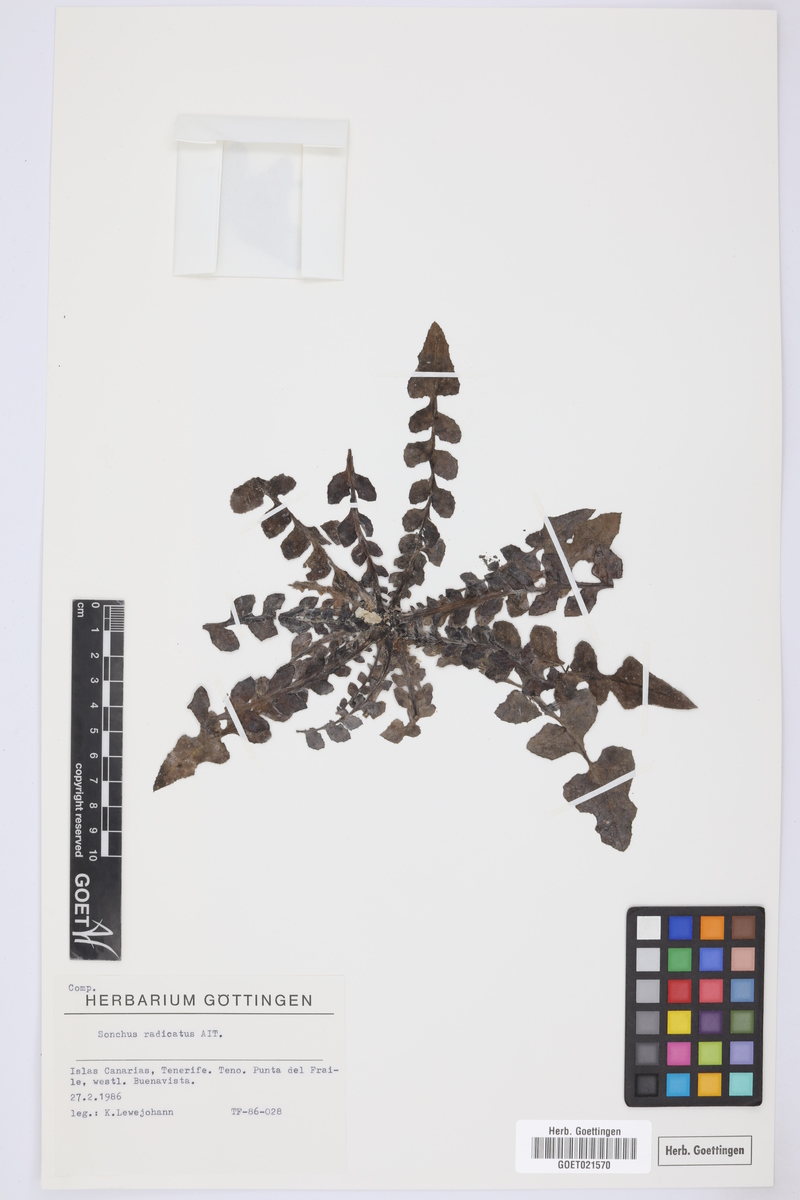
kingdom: Plantae
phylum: Tracheophyta
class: Magnoliopsida
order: Asterales
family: Asteraceae
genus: Sonchus
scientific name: Sonchus radicatus
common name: Long-rooted sow-thistle
